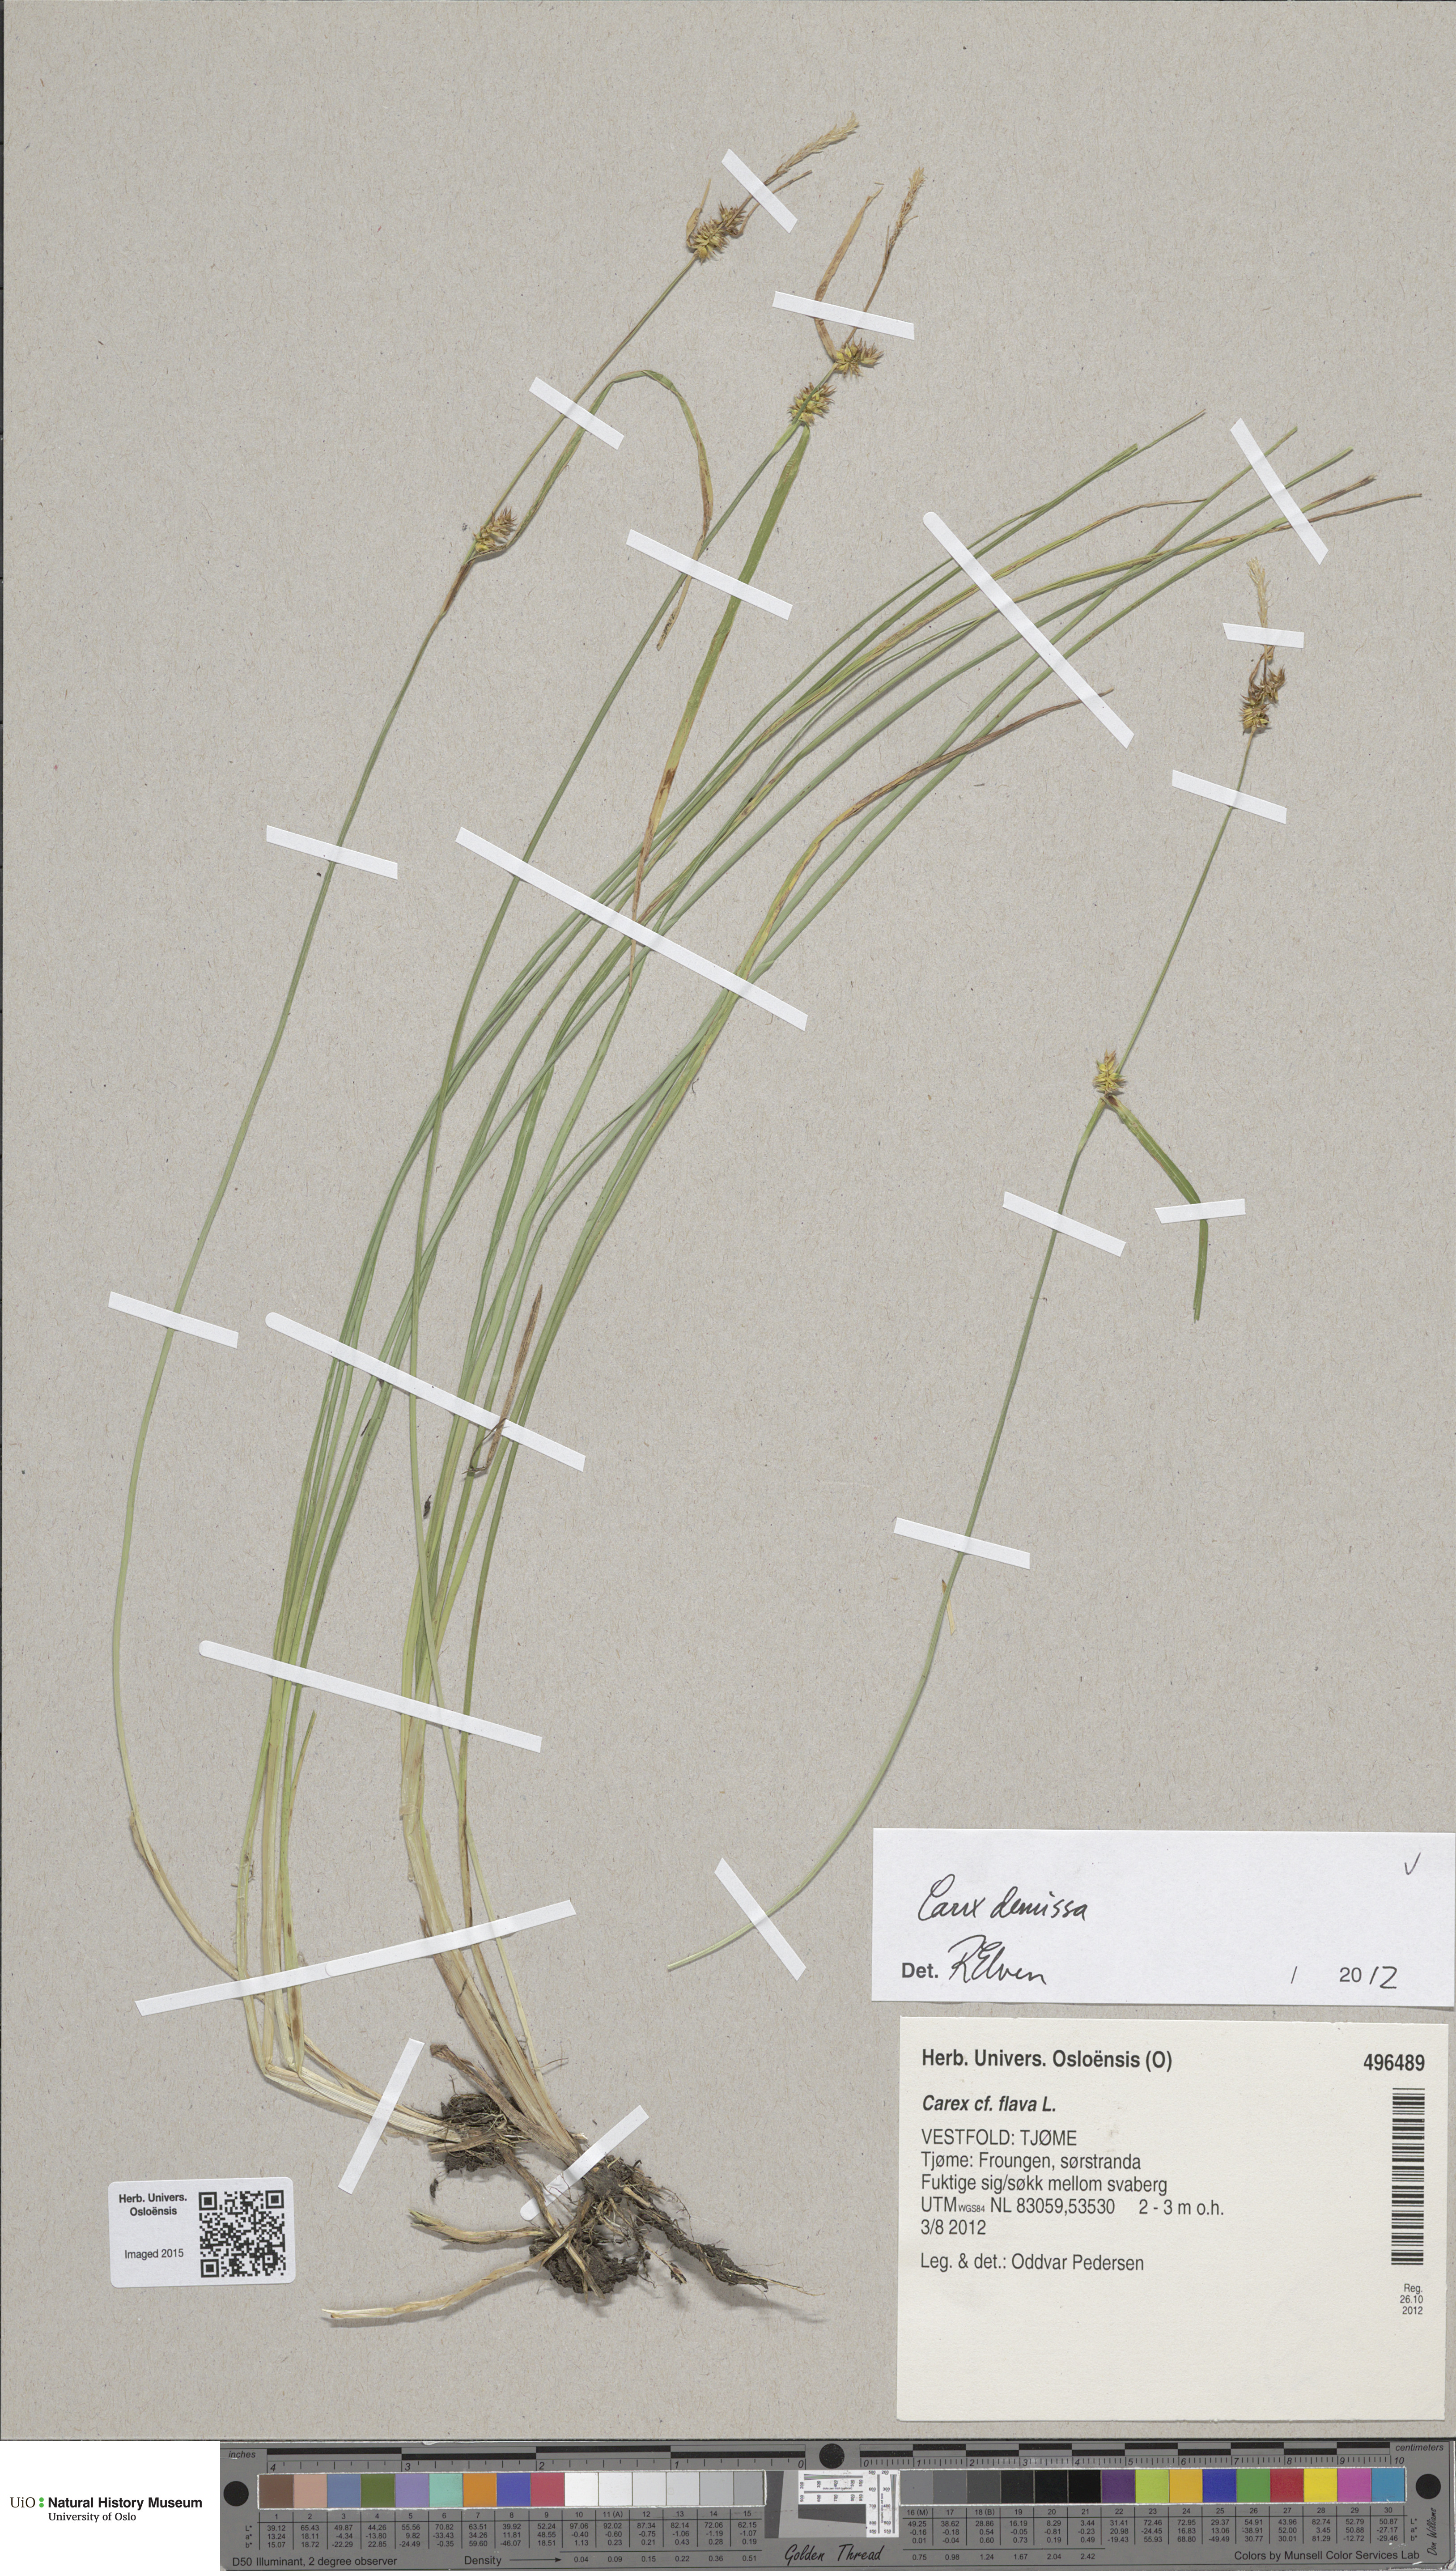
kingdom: Plantae
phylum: Tracheophyta
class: Liliopsida
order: Poales
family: Cyperaceae
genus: Carex
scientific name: Carex demissa
